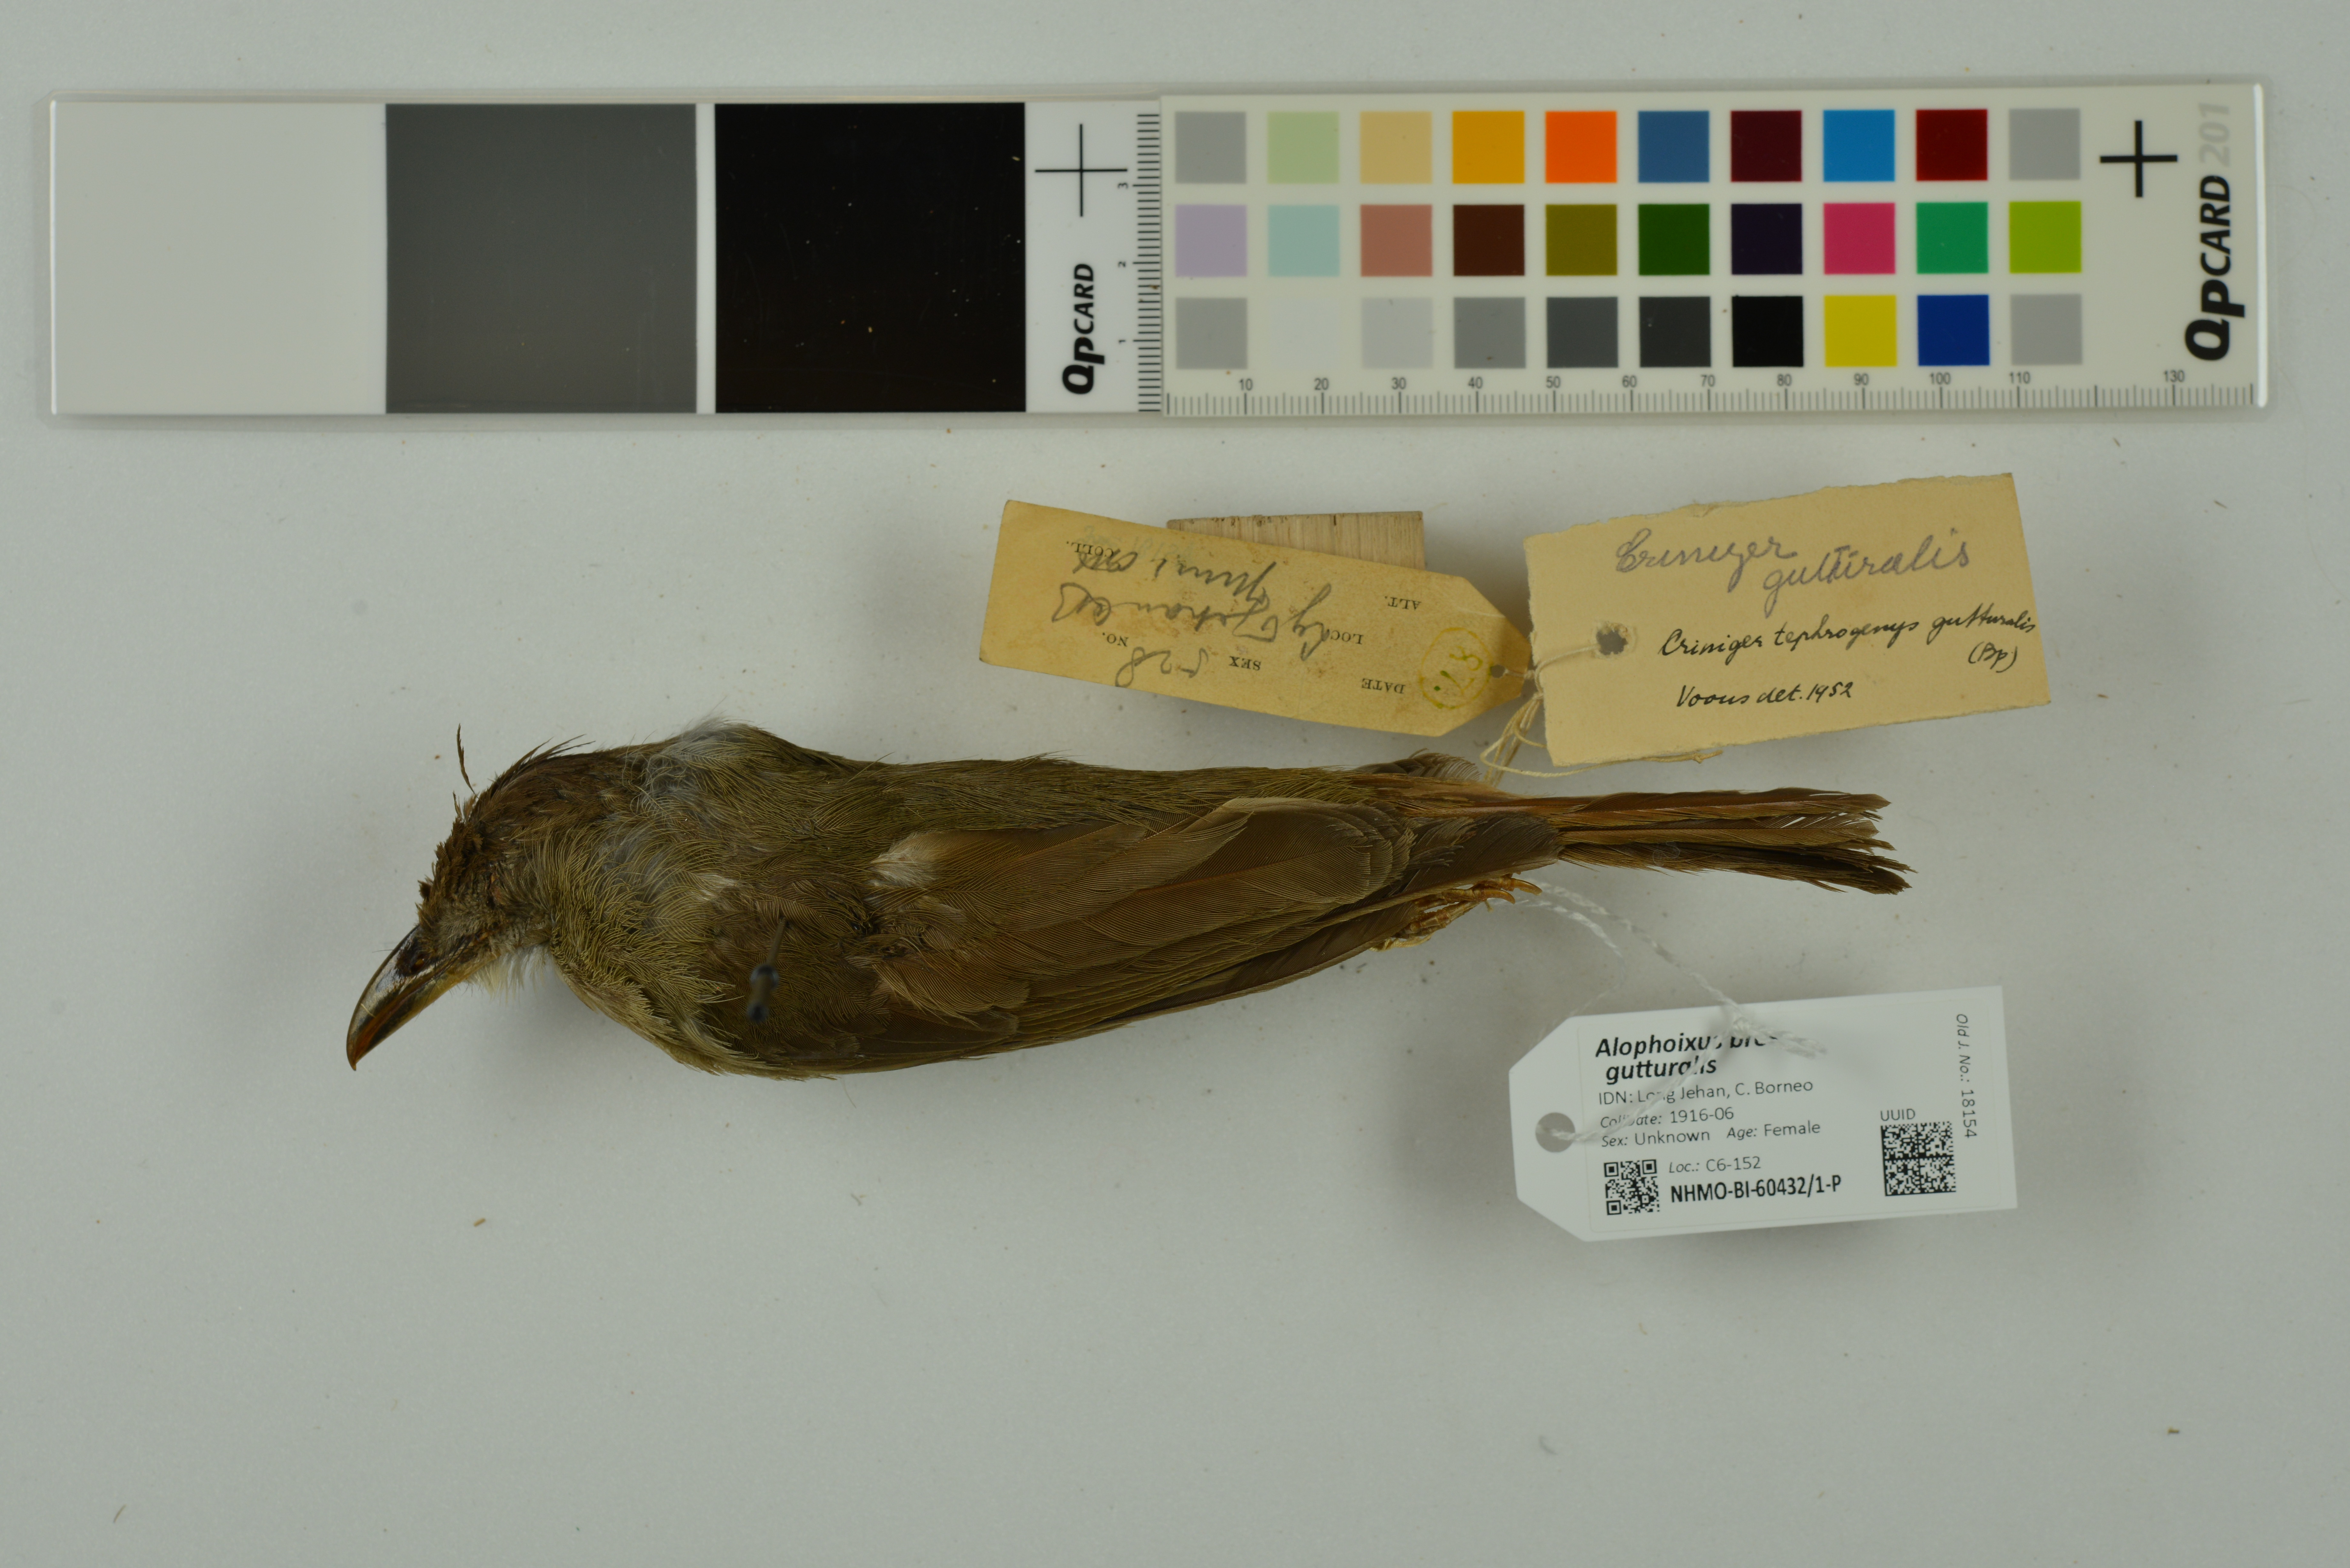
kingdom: Animalia
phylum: Chordata
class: Aves
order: Passeriformes
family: Pycnonotidae
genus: Alophoixus
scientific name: Alophoixus bres
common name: Gray-cheeked bulbul
